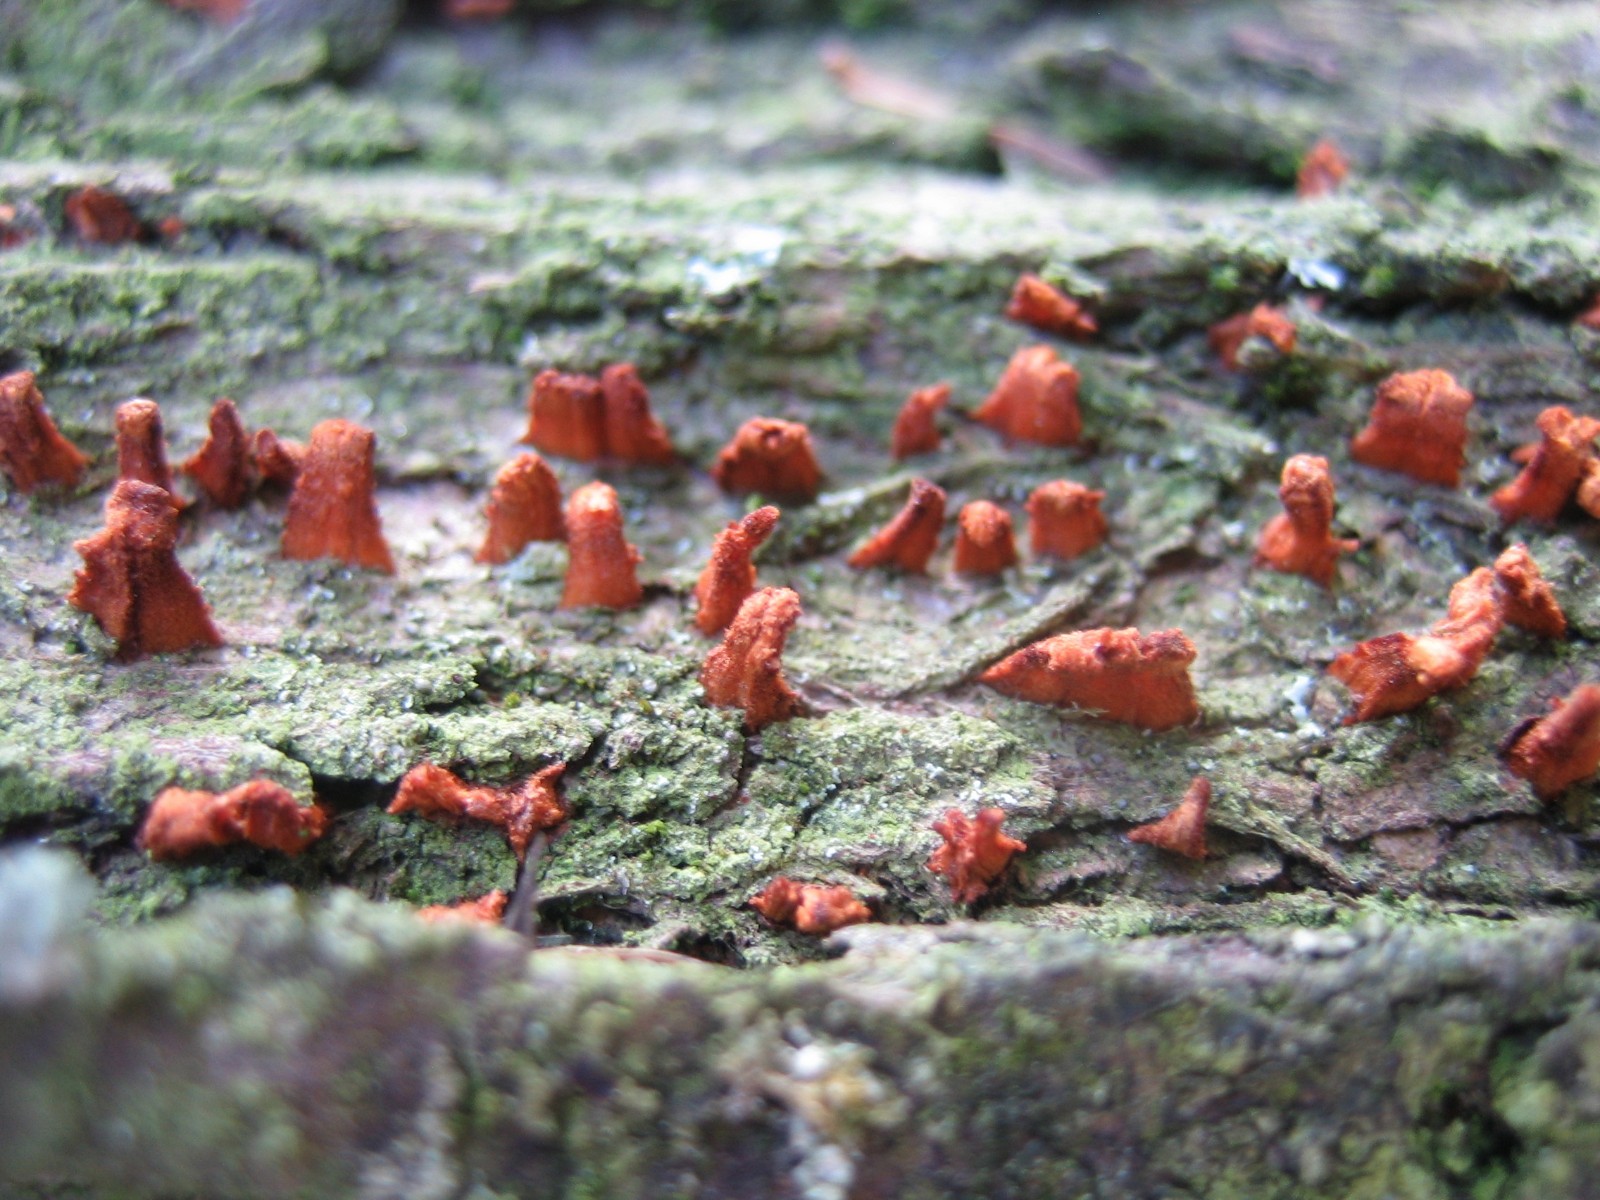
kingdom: Fungi
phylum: Basidiomycota
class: Pucciniomycetes
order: Pucciniales
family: Gymnosporangiaceae
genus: Gymnosporangium
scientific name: Gymnosporangium clavariiforme
